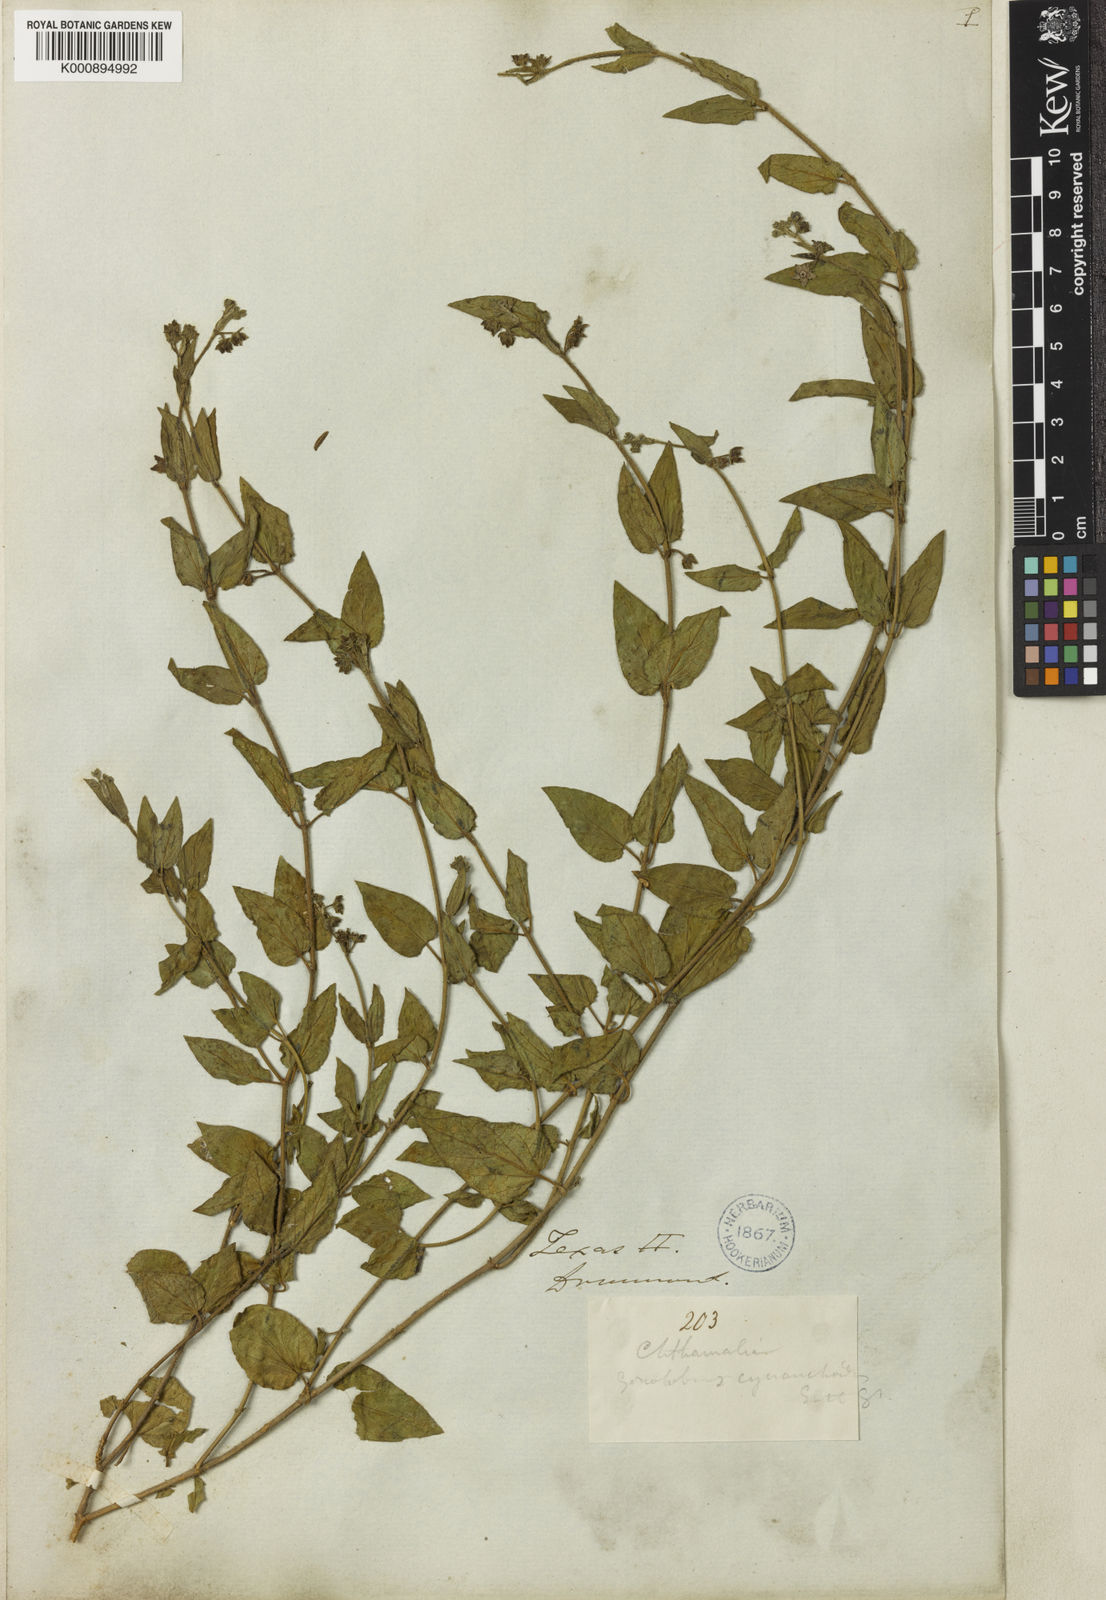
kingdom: Plantae
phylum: Tracheophyta
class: Magnoliopsida
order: Gentianales
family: Apocynaceae
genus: Matelea
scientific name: Matelea cynanchoides
